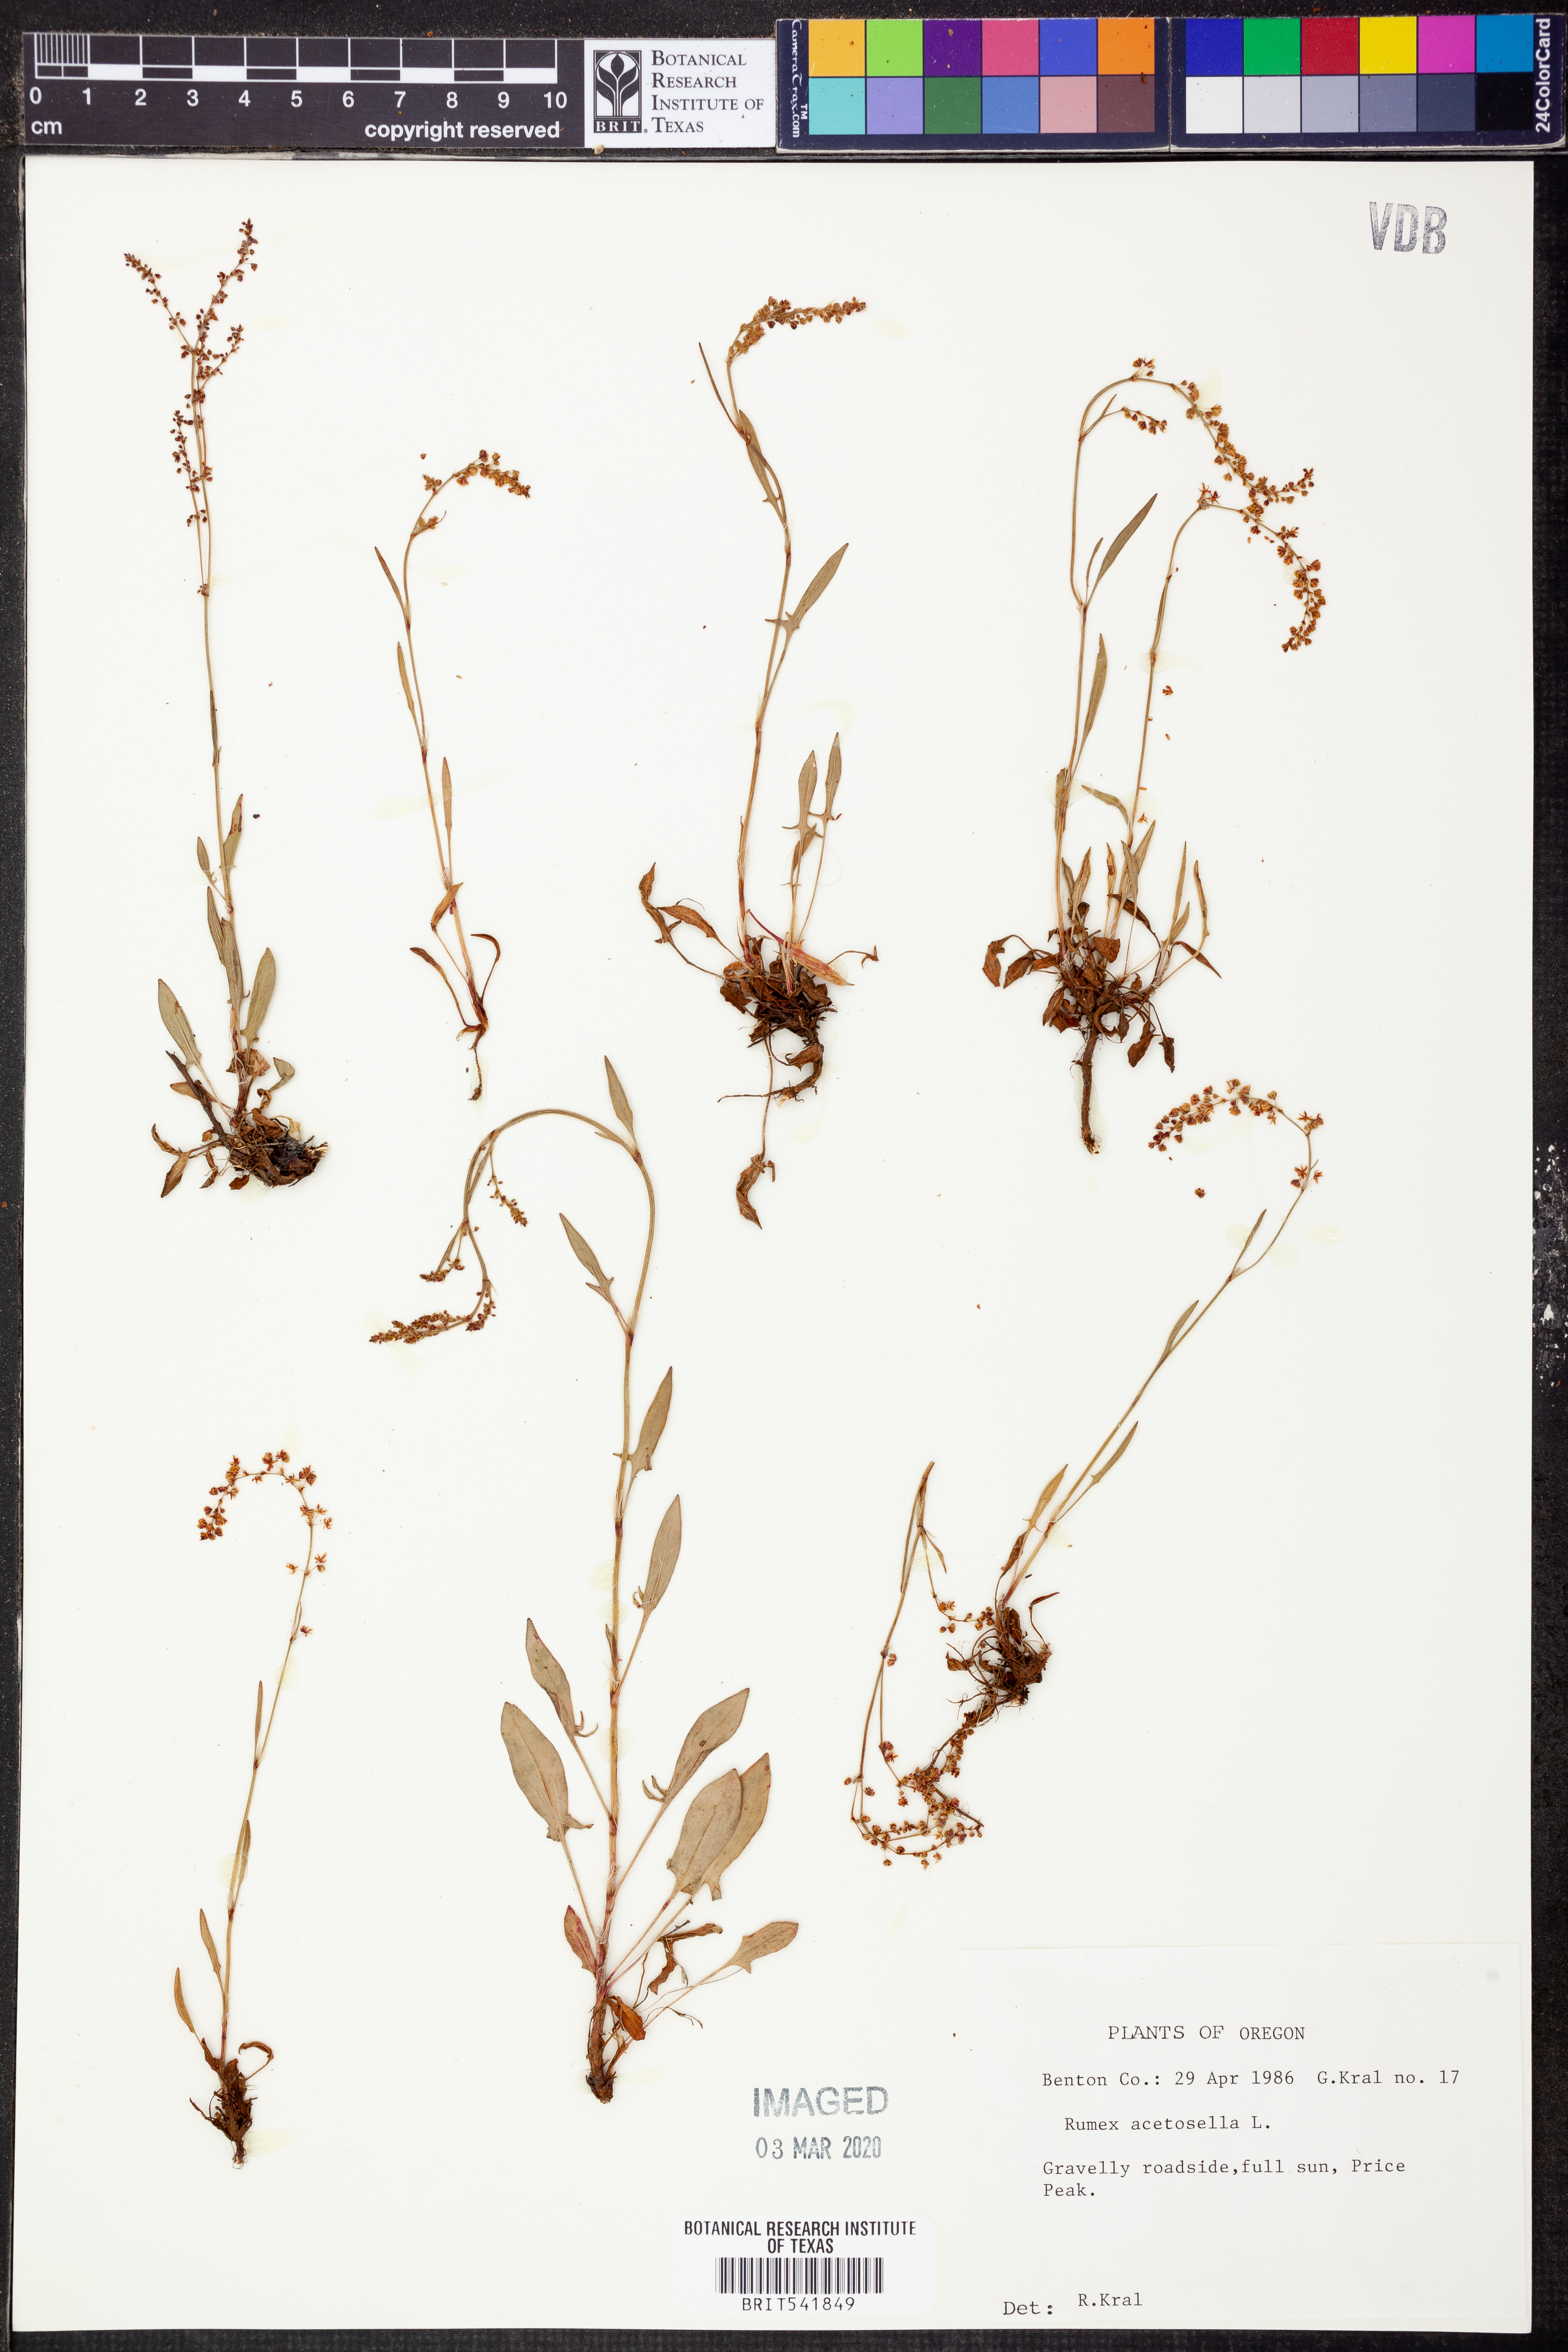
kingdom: Plantae
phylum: Tracheophyta
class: Magnoliopsida
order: Caryophyllales
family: Polygonaceae
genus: Rumex
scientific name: Rumex acetosella
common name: Common sheep sorrel
